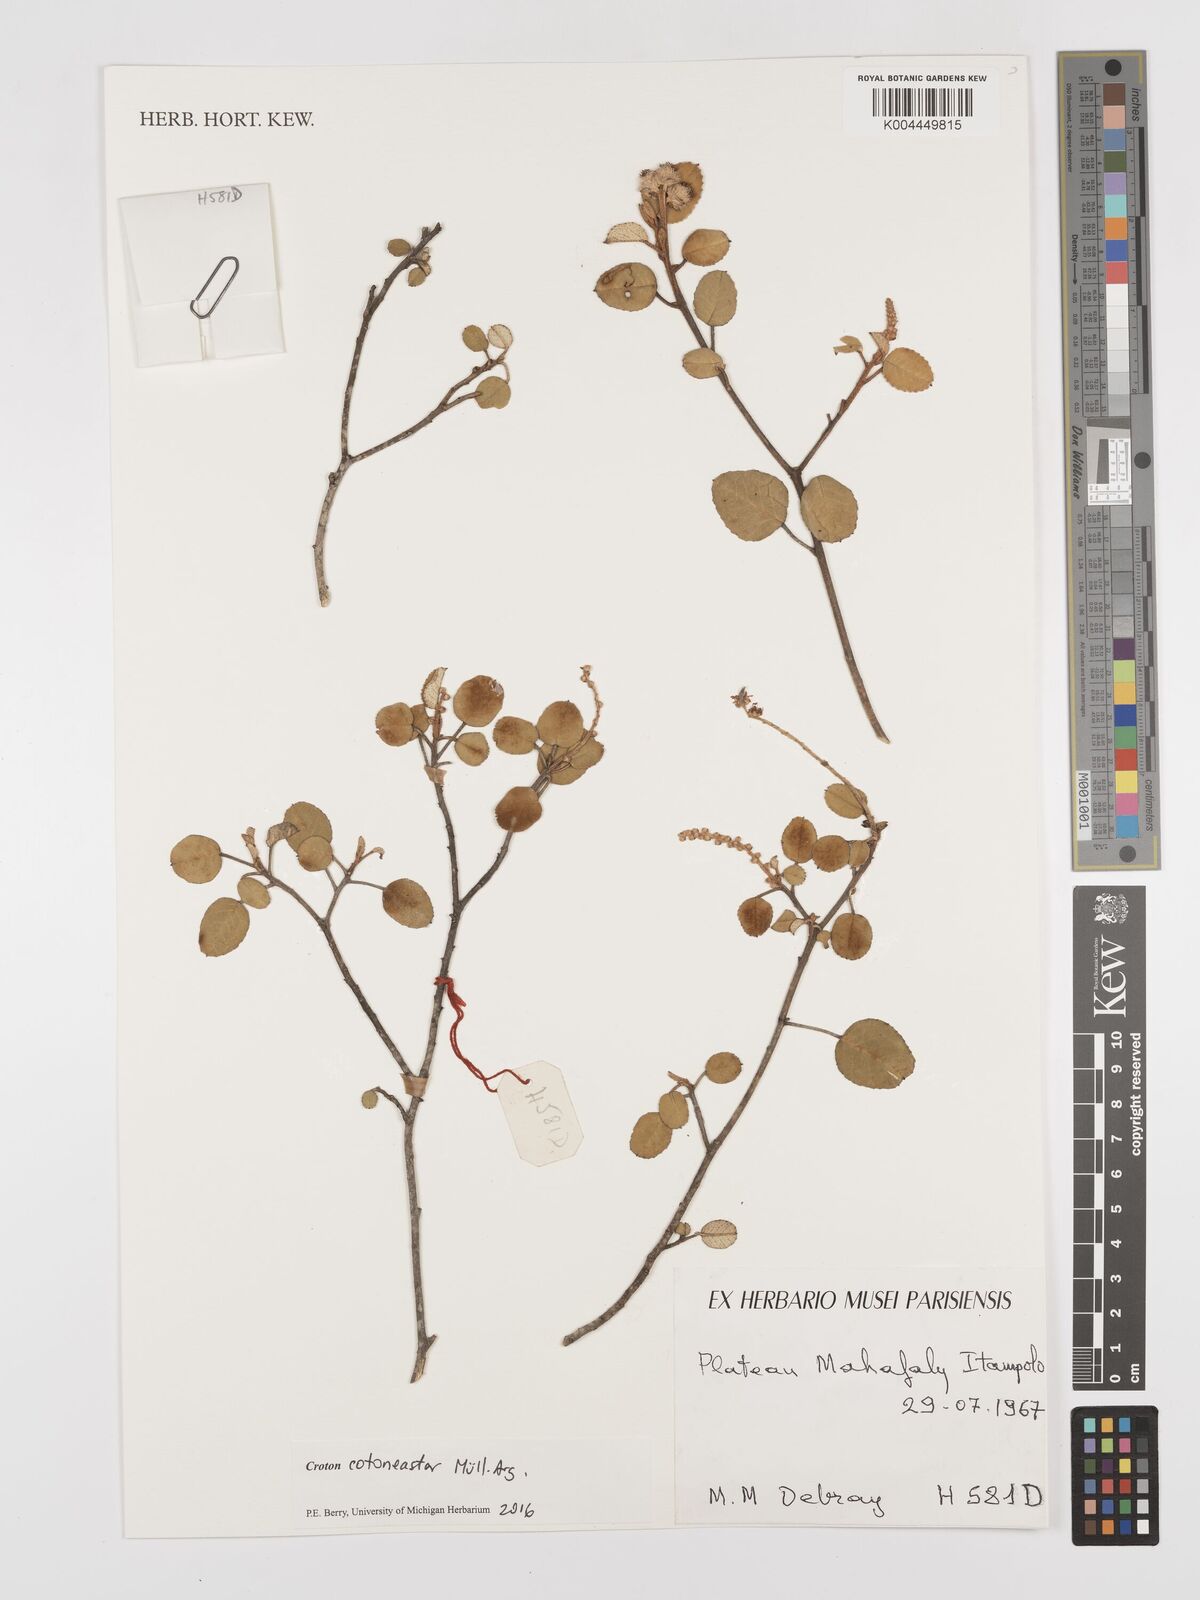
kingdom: Plantae
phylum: Tracheophyta
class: Magnoliopsida
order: Malpighiales
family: Euphorbiaceae
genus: Croton
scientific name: Croton cotoneaster
